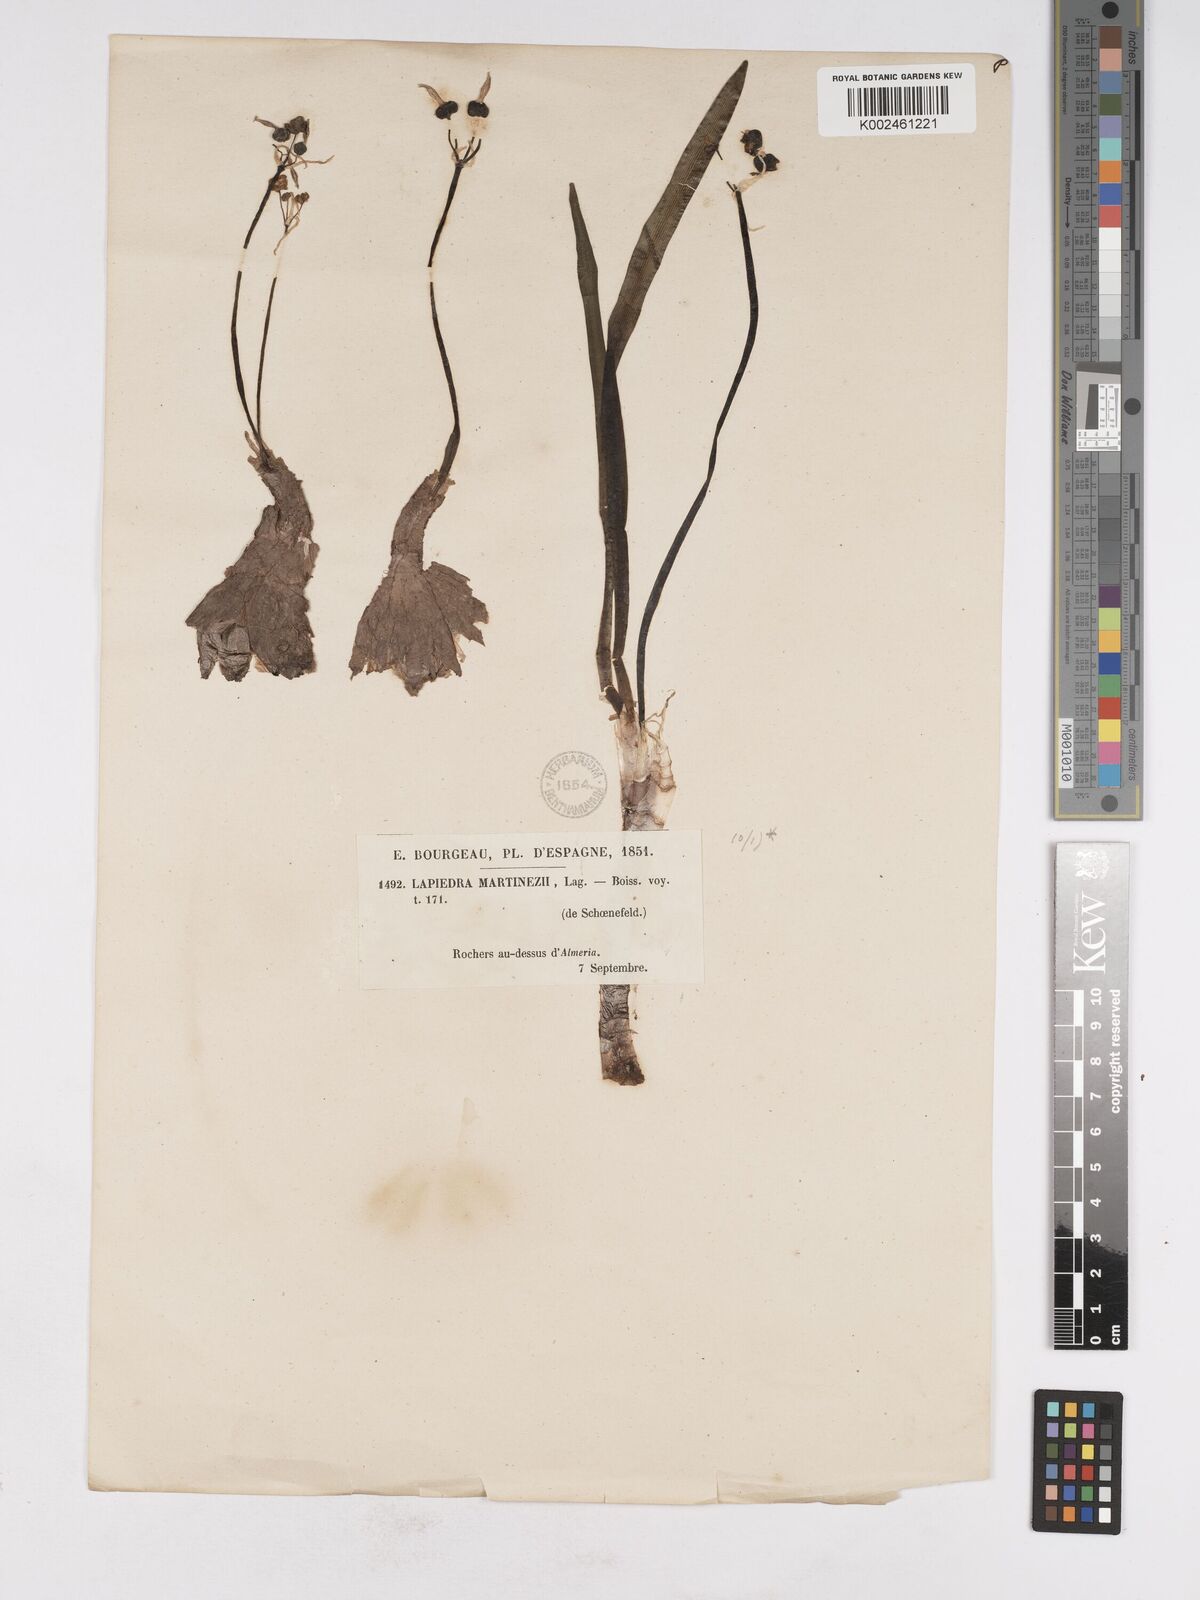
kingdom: Plantae
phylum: Tracheophyta
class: Liliopsida
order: Asparagales
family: Amaryllidaceae
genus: Lapiedra
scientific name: Lapiedra martinezii
